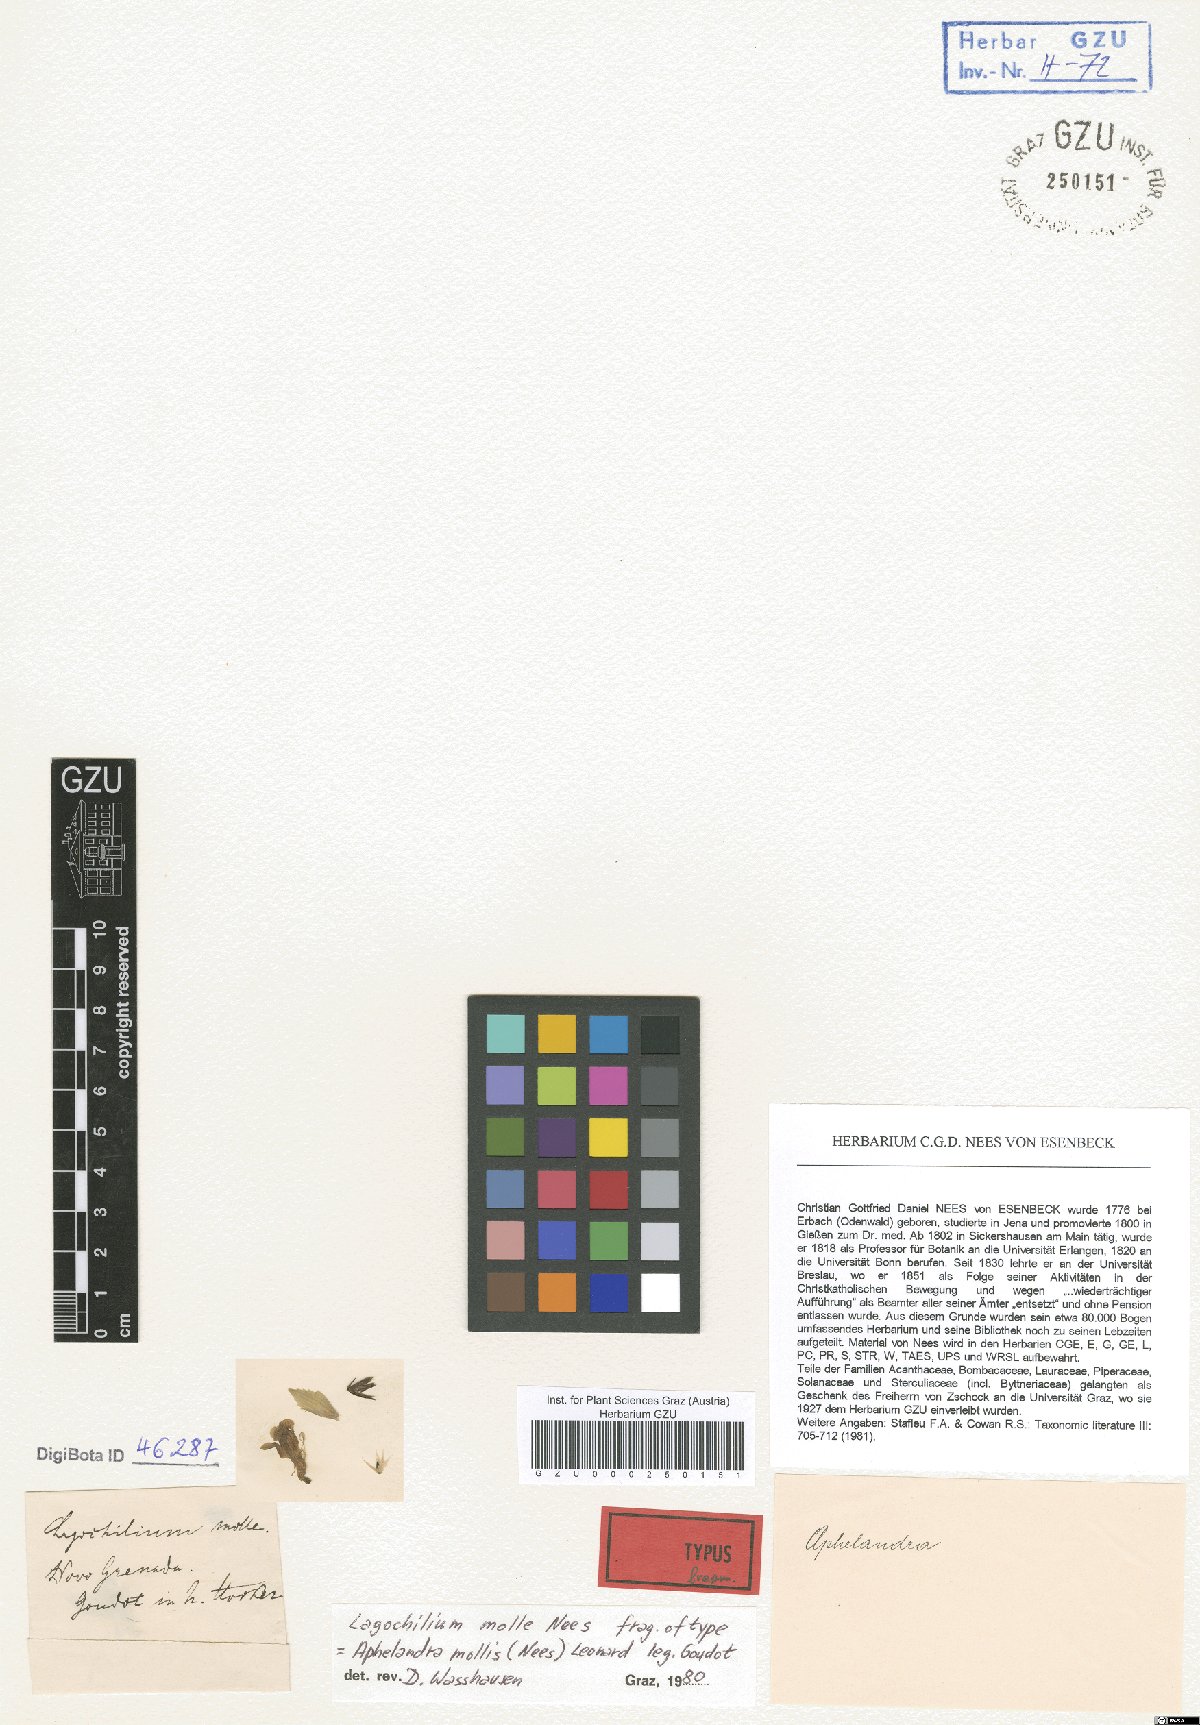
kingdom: Plantae
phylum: Tracheophyta
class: Magnoliopsida
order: Lamiales
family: Acanthaceae
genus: Aphelandra
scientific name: Aphelandra mollis
